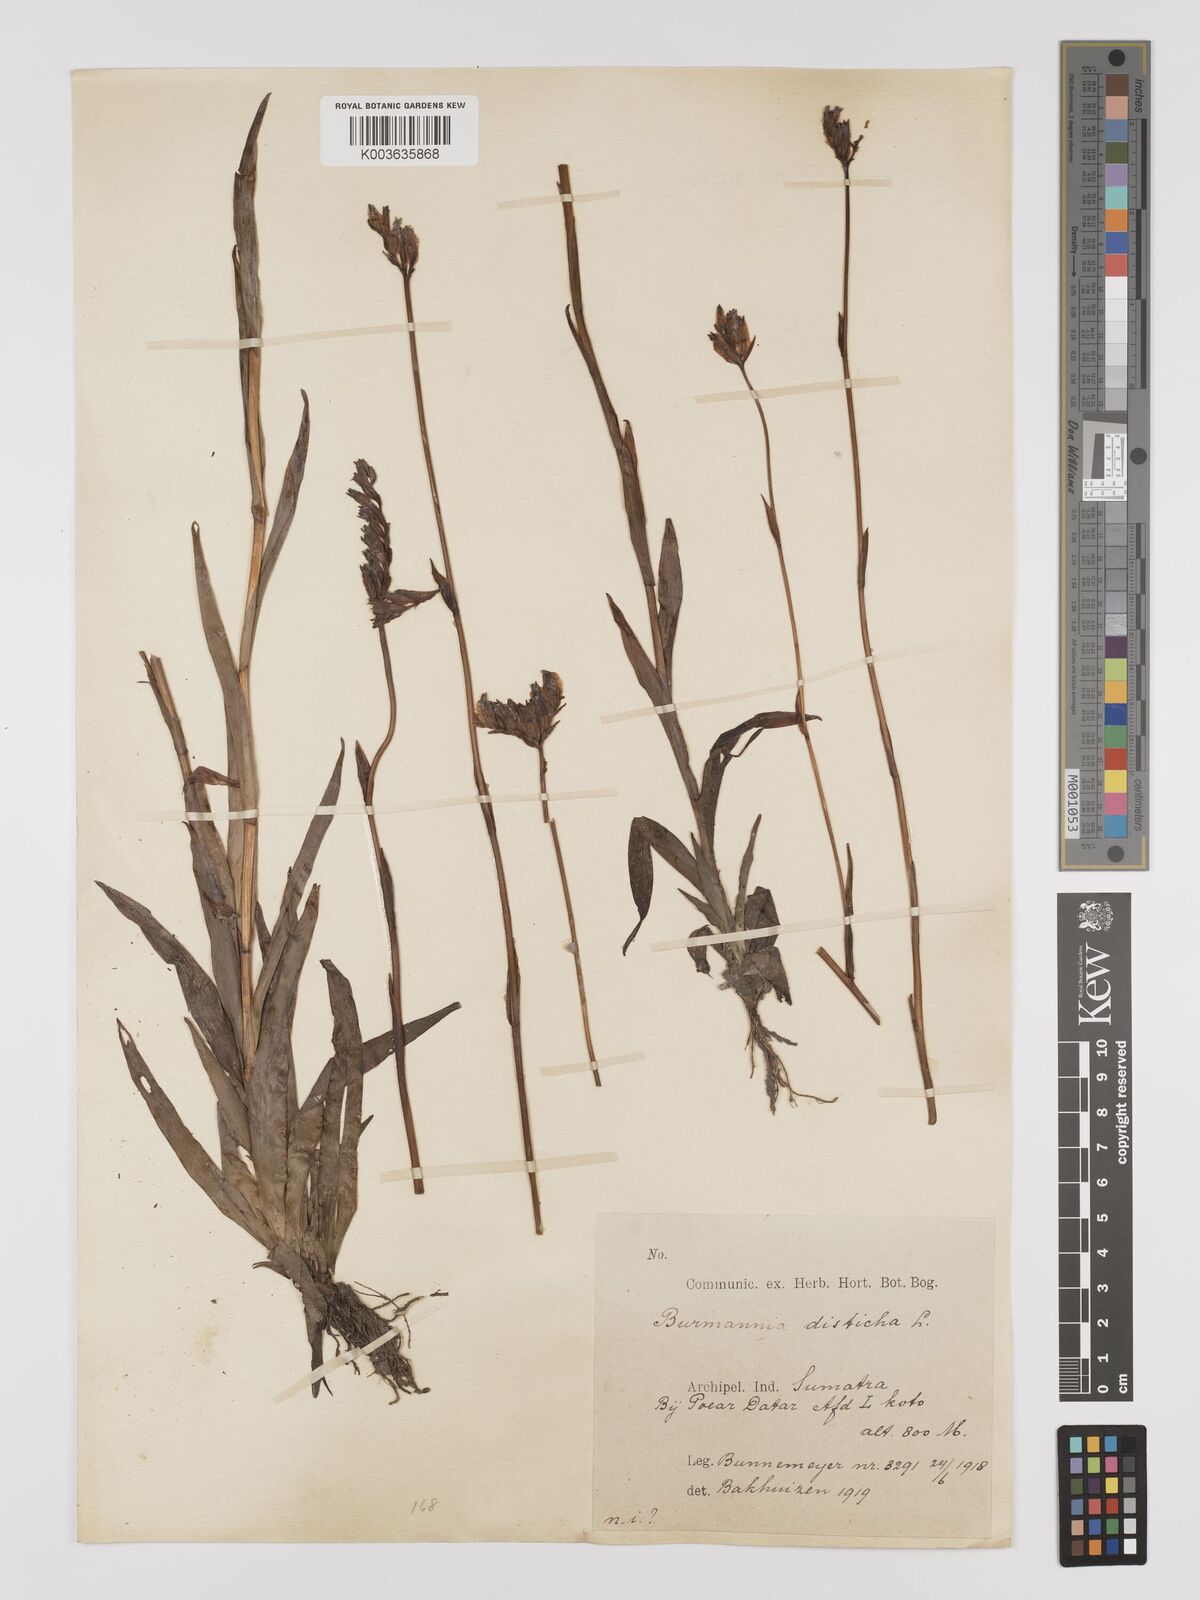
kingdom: Plantae
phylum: Tracheophyta
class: Liliopsida
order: Dioscoreales
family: Burmanniaceae
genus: Burmannia
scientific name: Burmannia disticha
